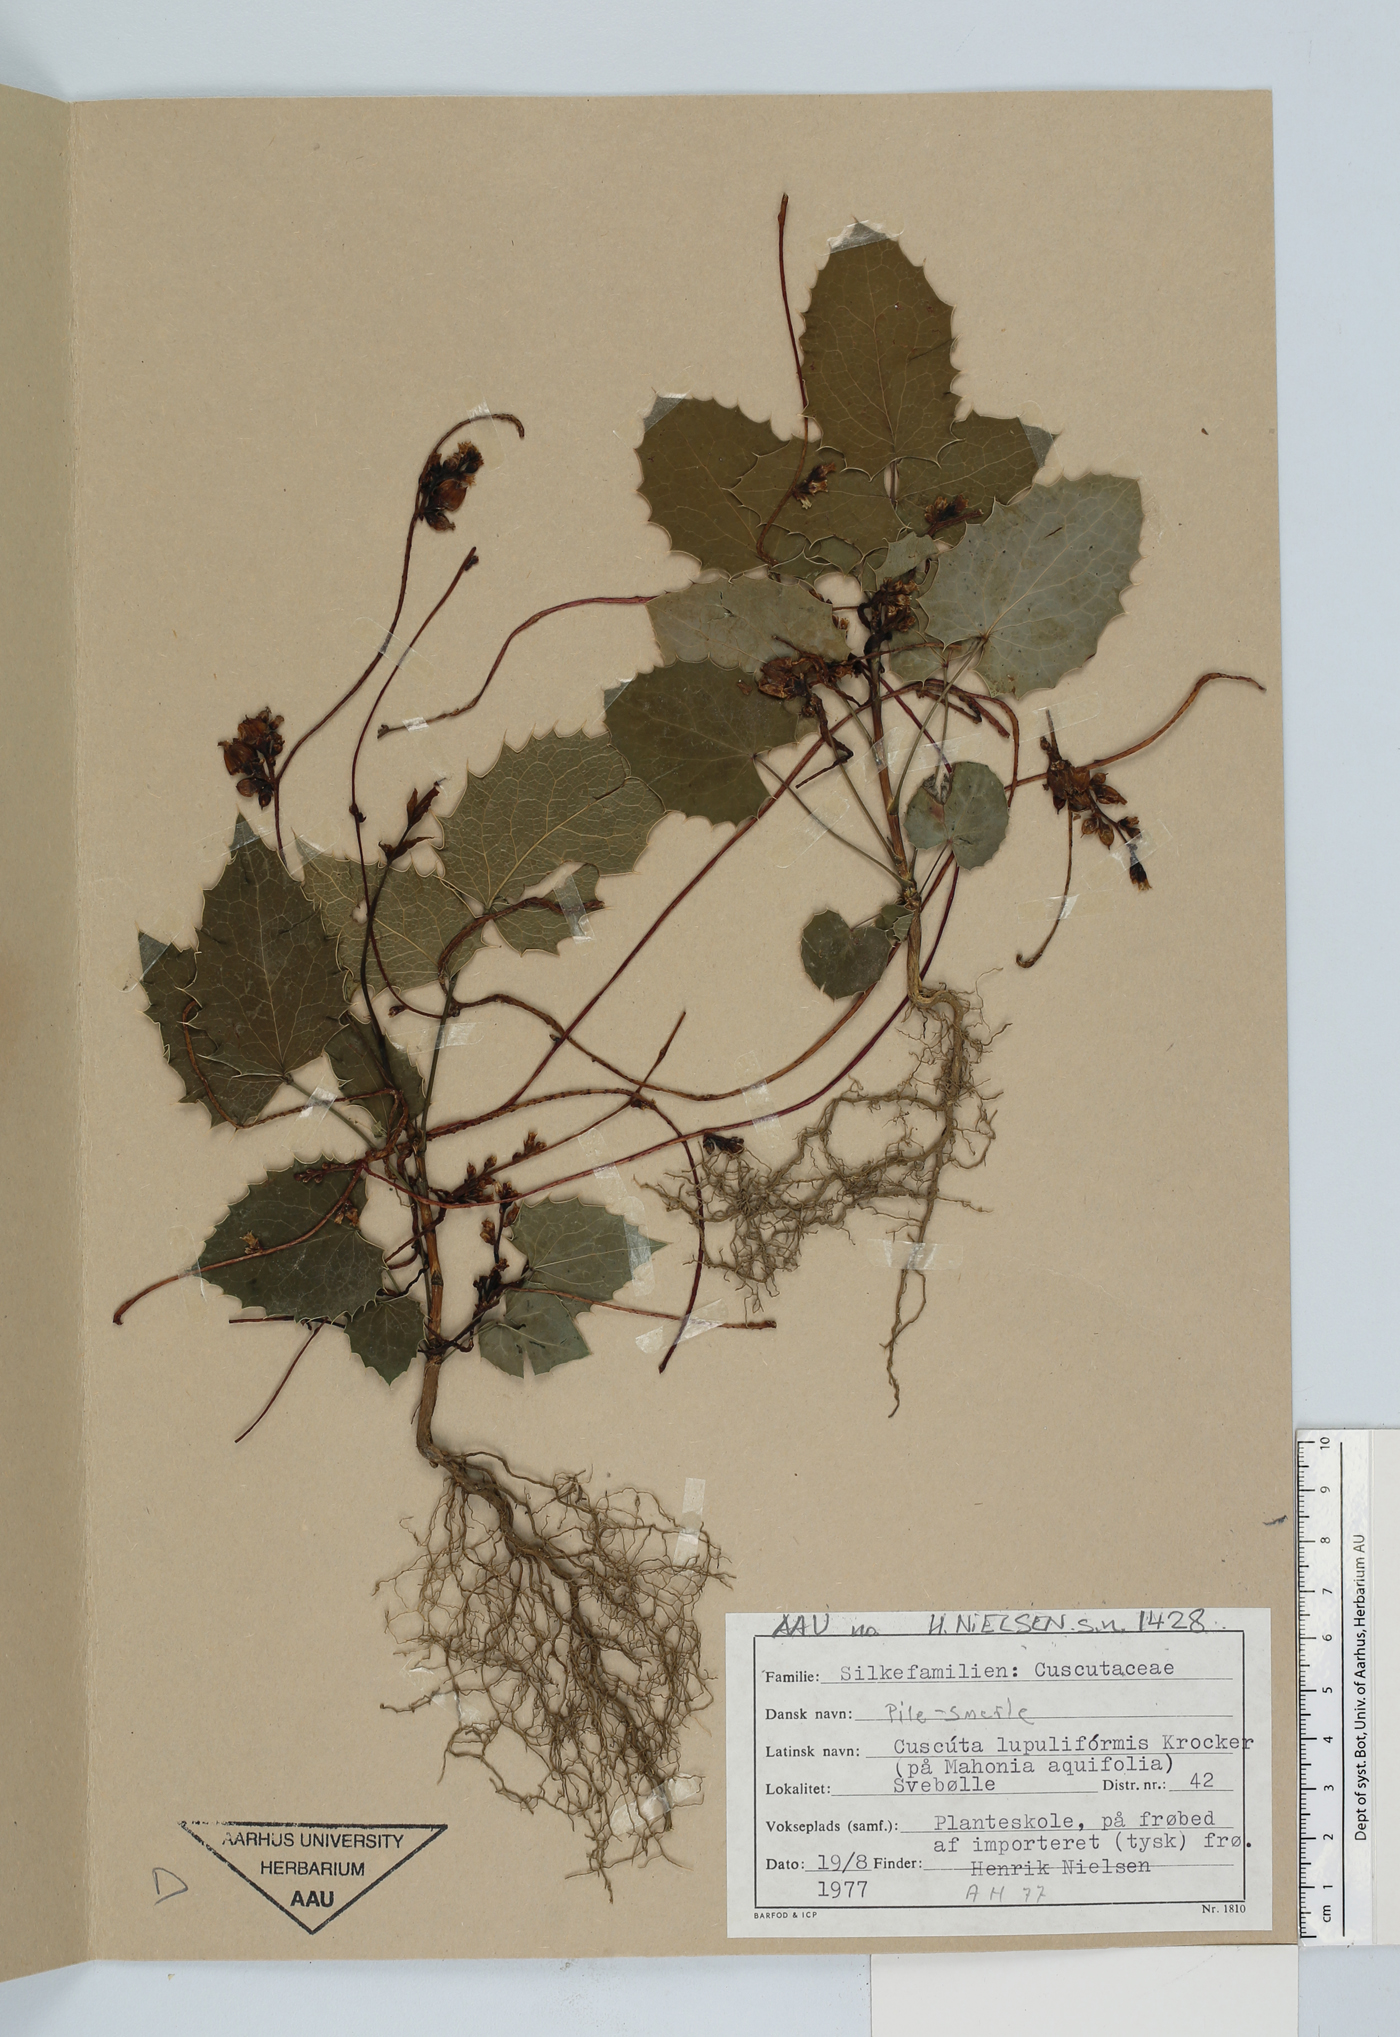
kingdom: Plantae
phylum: Tracheophyta
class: Magnoliopsida
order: Solanales
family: Convolvulaceae
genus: Cuscuta
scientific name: Cuscuta lupuliformis
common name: Hop dodder
